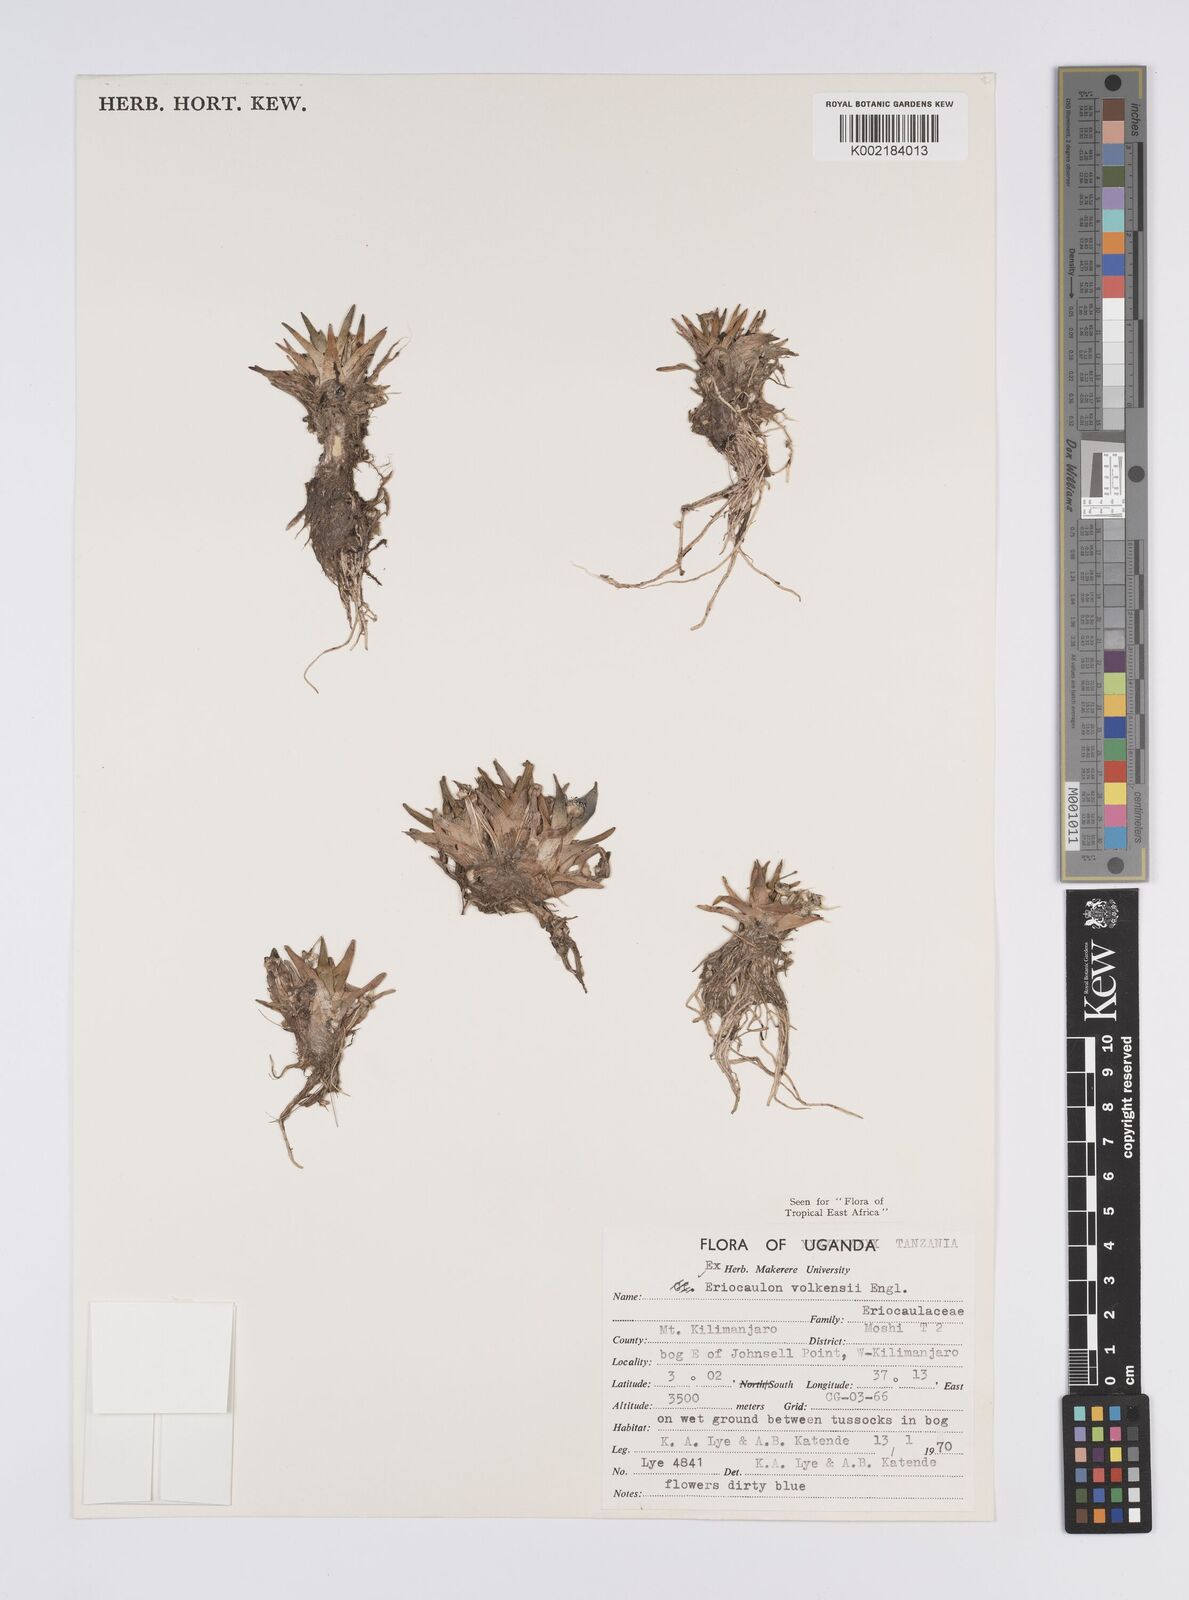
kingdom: Plantae
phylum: Tracheophyta
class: Liliopsida
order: Poales
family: Eriocaulaceae
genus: Eriocaulon
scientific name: Eriocaulon volkensii
